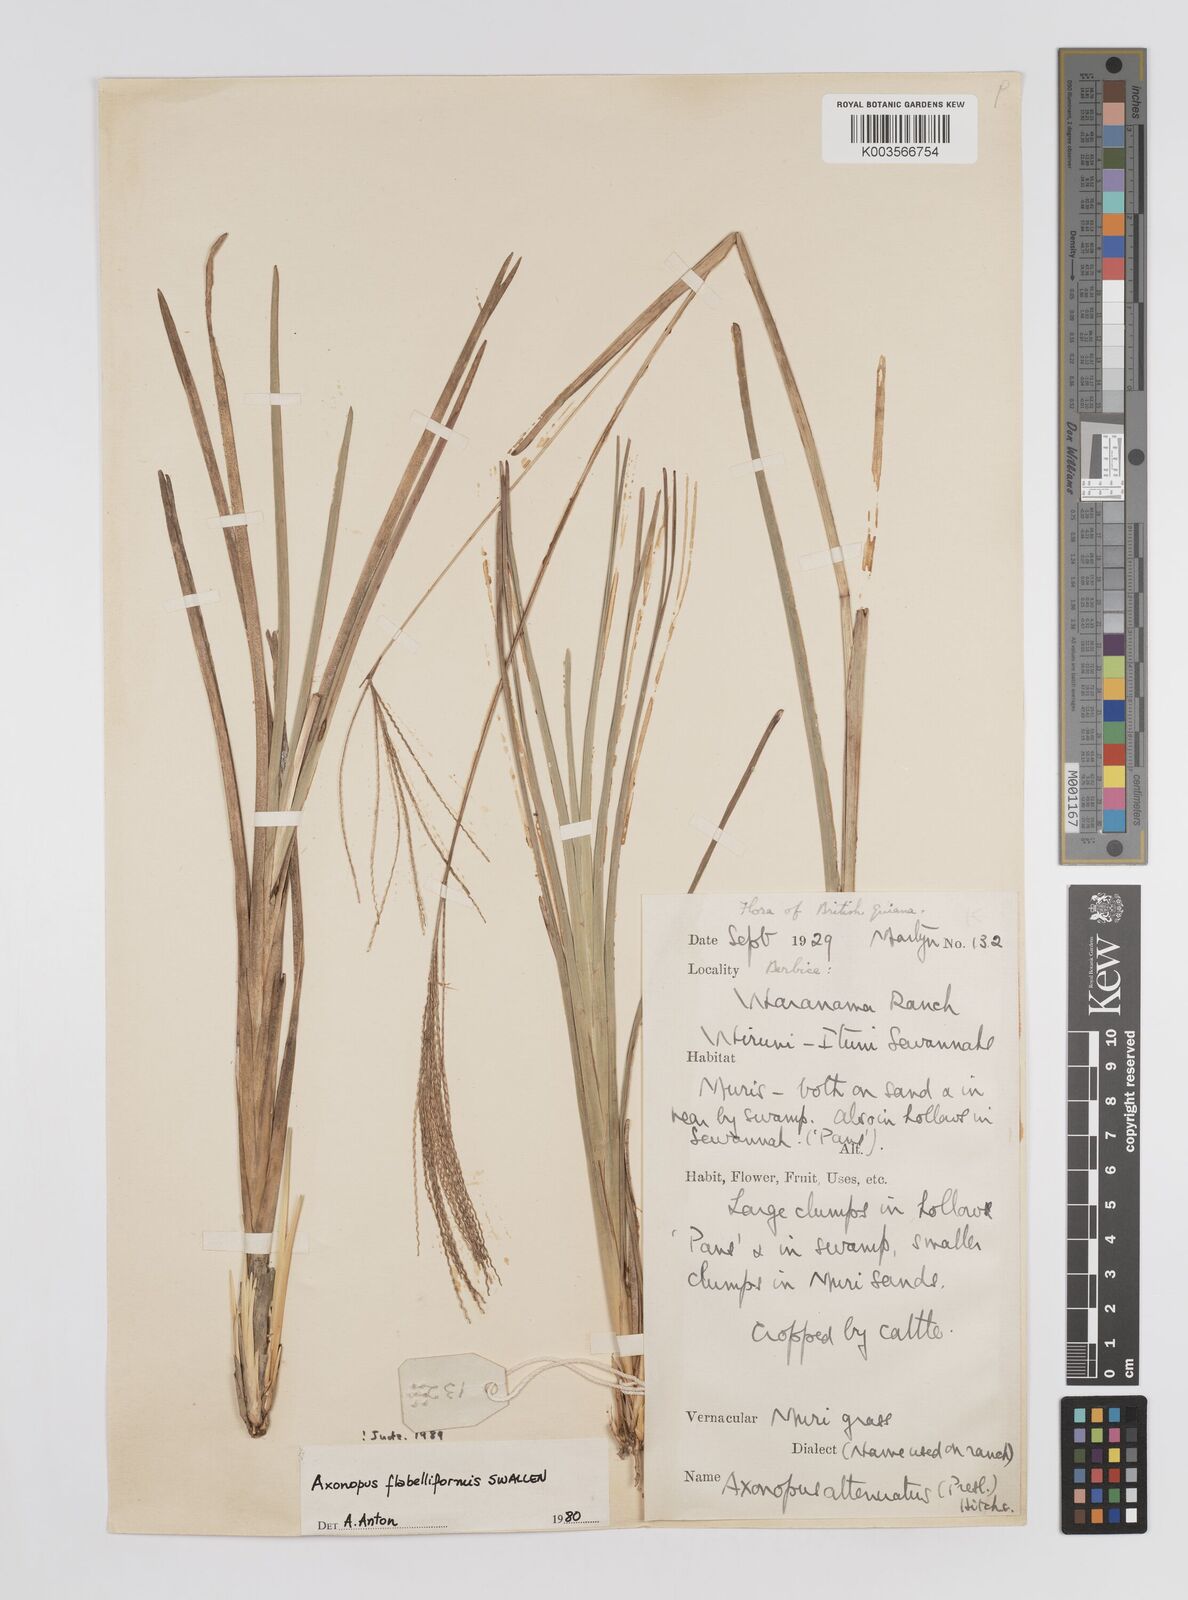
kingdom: Plantae
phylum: Tracheophyta
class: Liliopsida
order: Poales
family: Poaceae
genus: Axonopus
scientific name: Axonopus flabelliformis
